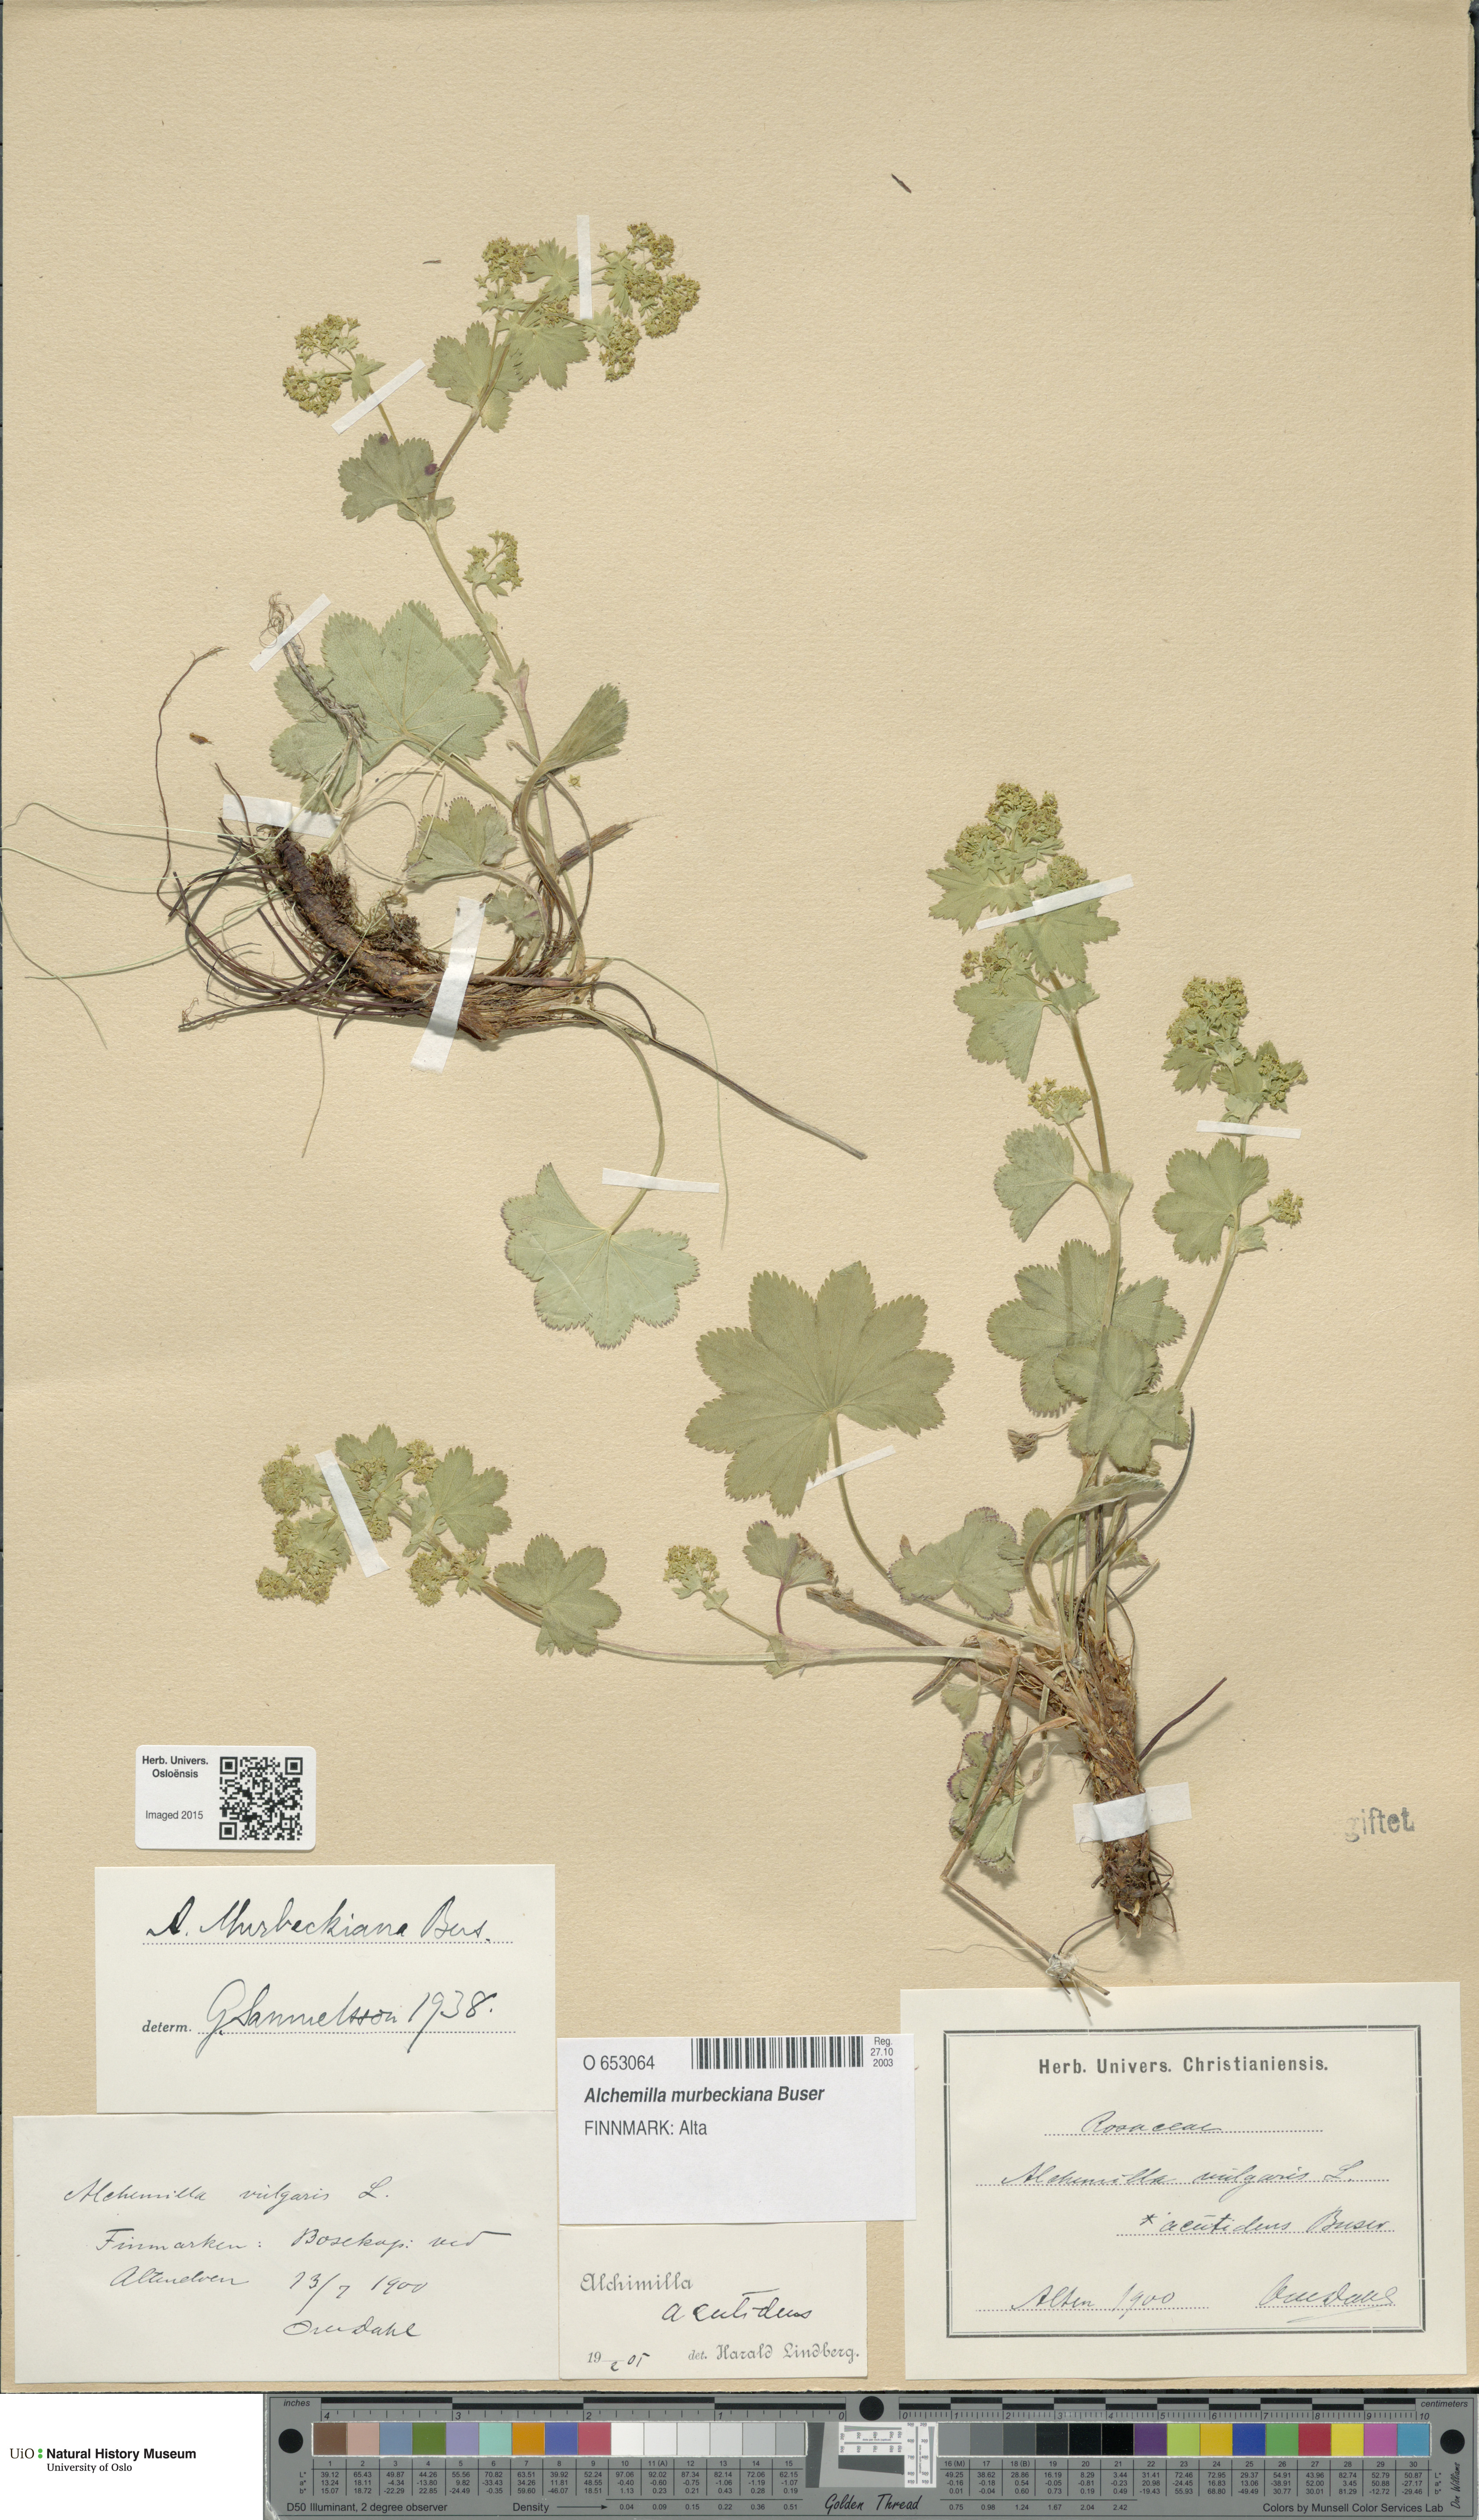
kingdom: Plantae
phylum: Tracheophyta
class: Magnoliopsida
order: Rosales
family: Rosaceae
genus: Alchemilla
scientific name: Alchemilla murbeckiana
